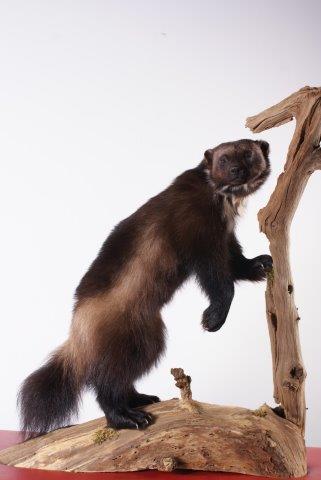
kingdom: Animalia
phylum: Chordata
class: Mammalia
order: Carnivora
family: Mustelidae
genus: Gulo
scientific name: Gulo gulo
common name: Wolverine
